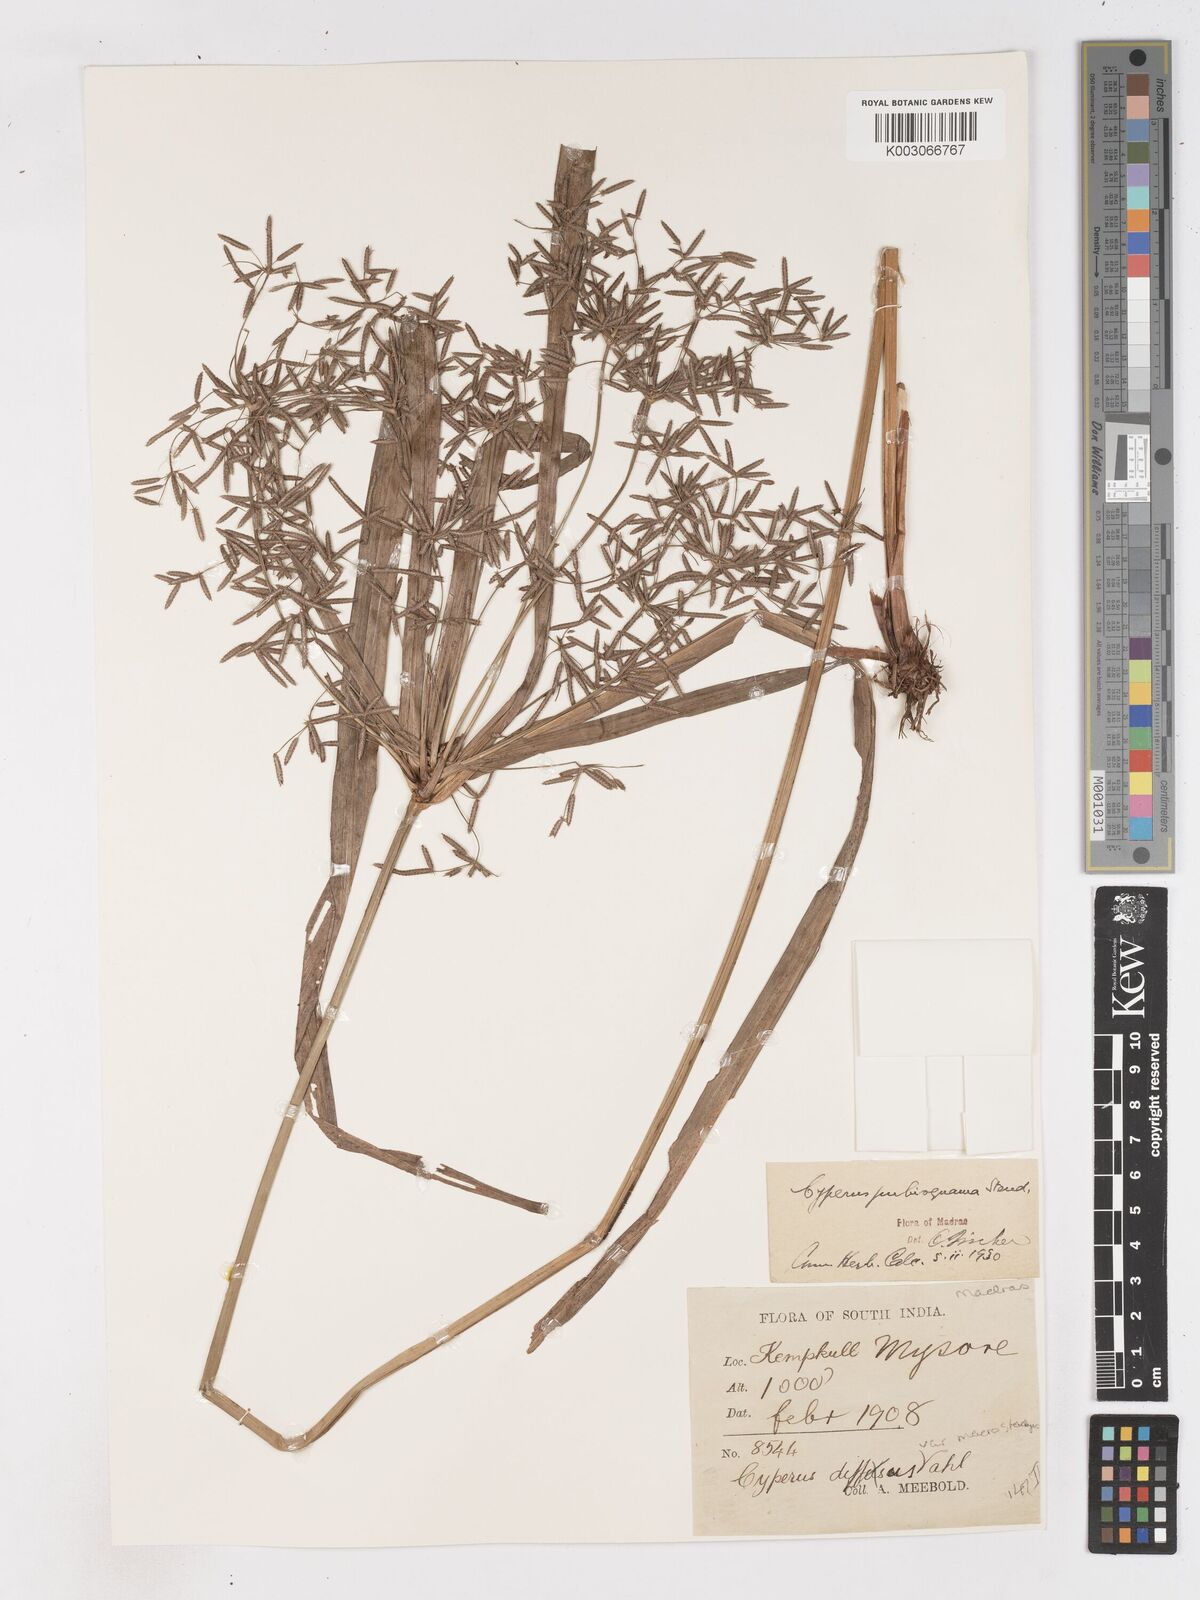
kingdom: Plantae
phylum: Tracheophyta
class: Liliopsida
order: Poales
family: Cyperaceae
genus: Cyperus
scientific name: Cyperus diffusus
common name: Dwarf umbrella grass
